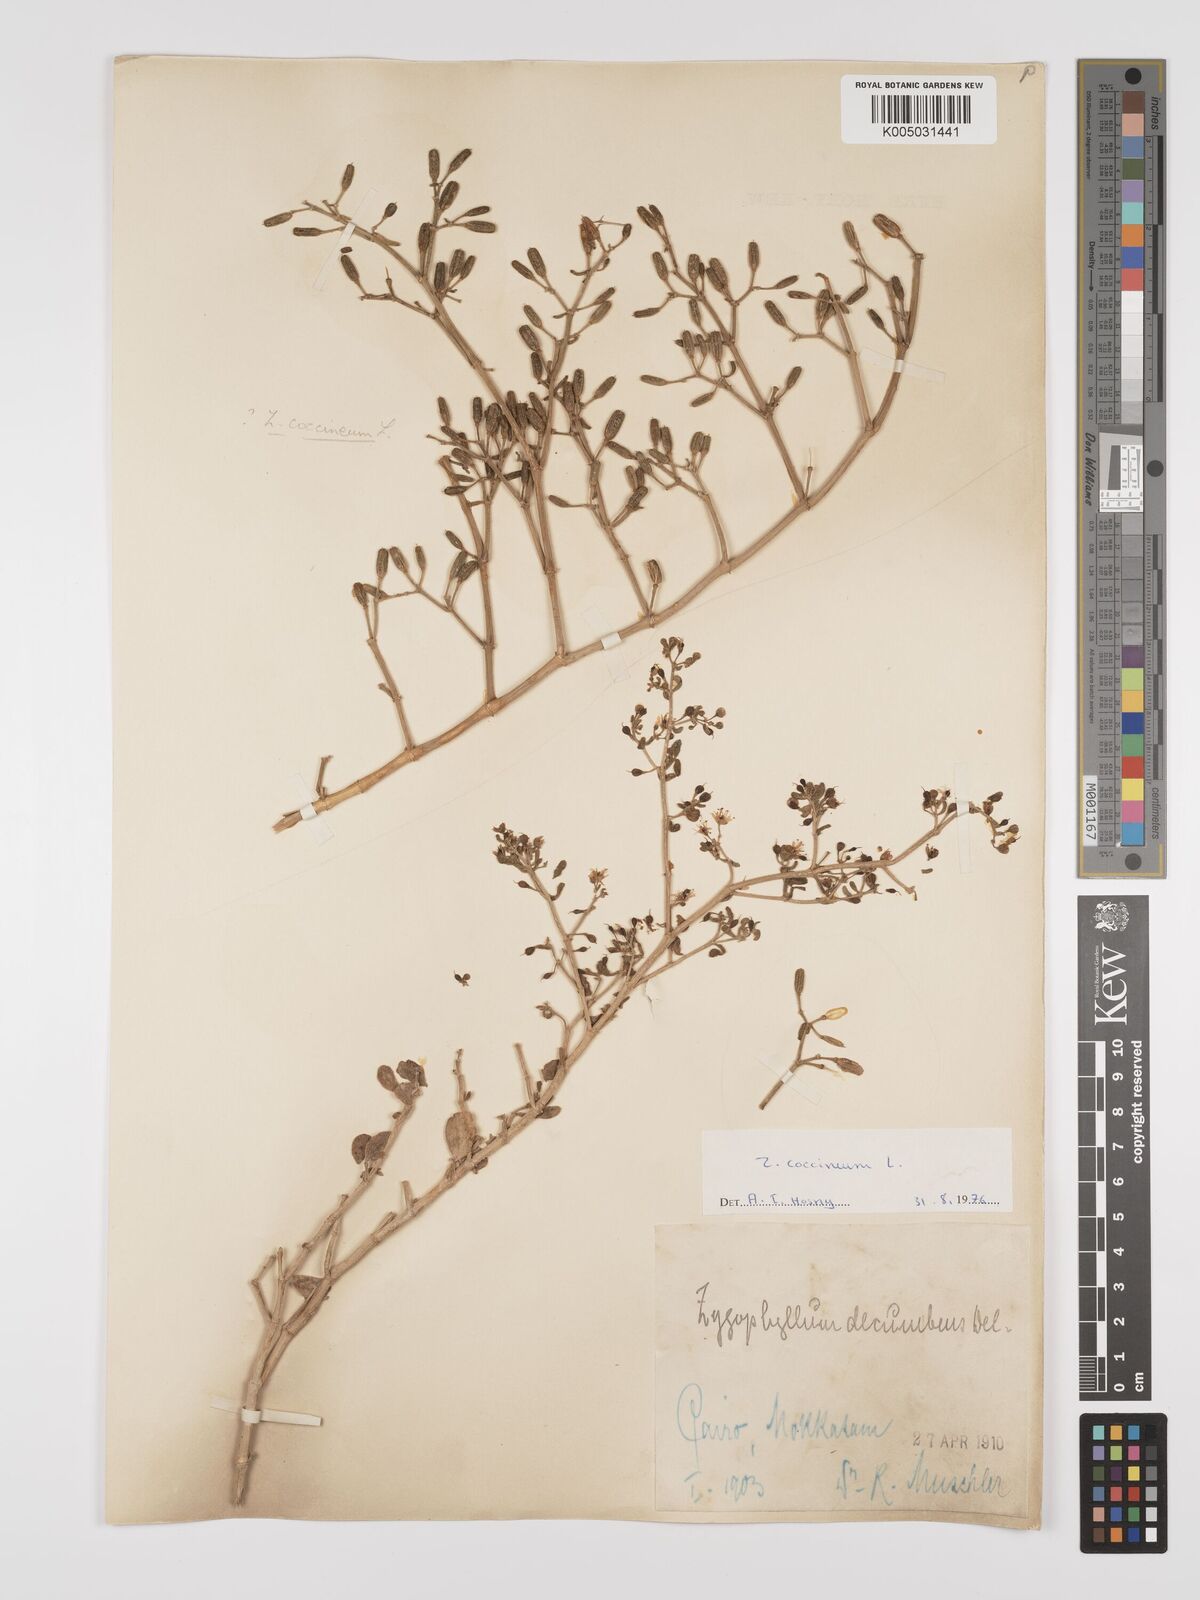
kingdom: Plantae
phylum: Tracheophyta
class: Magnoliopsida
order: Zygophyllales
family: Zygophyllaceae
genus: Zygophyllum
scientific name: Zygophyllum
